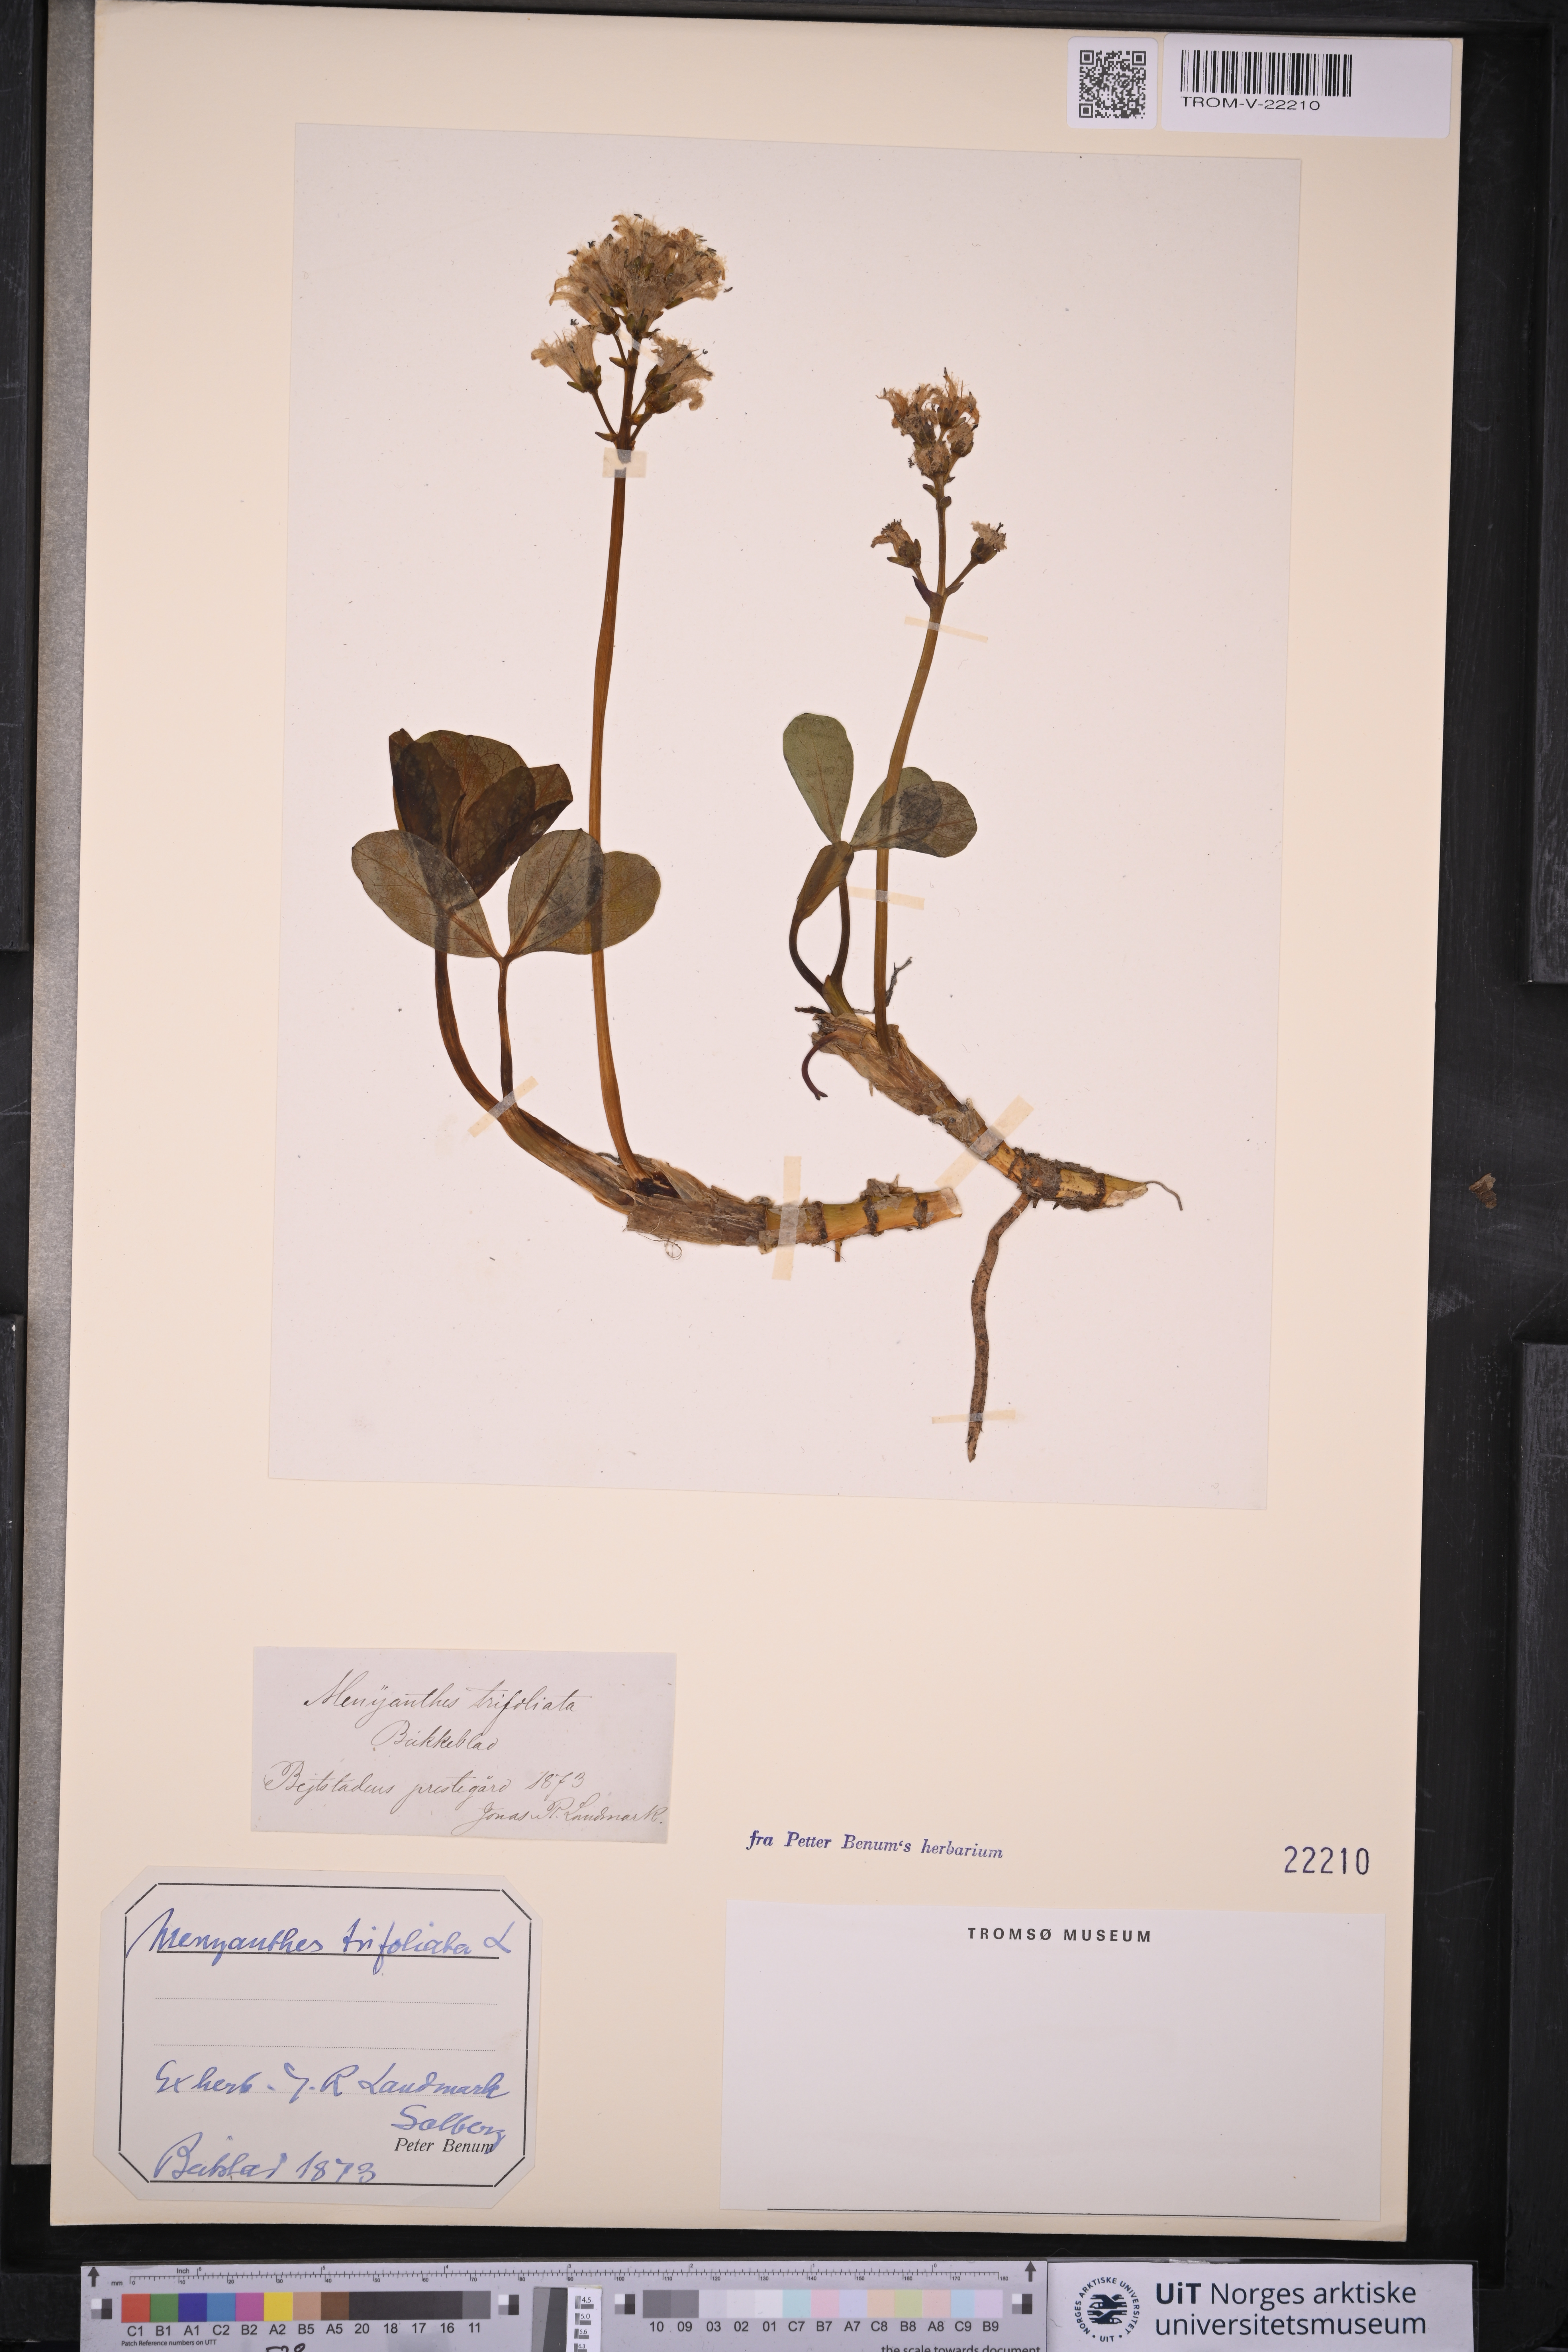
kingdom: Plantae
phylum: Tracheophyta
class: Magnoliopsida
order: Asterales
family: Menyanthaceae
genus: Menyanthes
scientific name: Menyanthes trifoliata
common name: Bogbean
